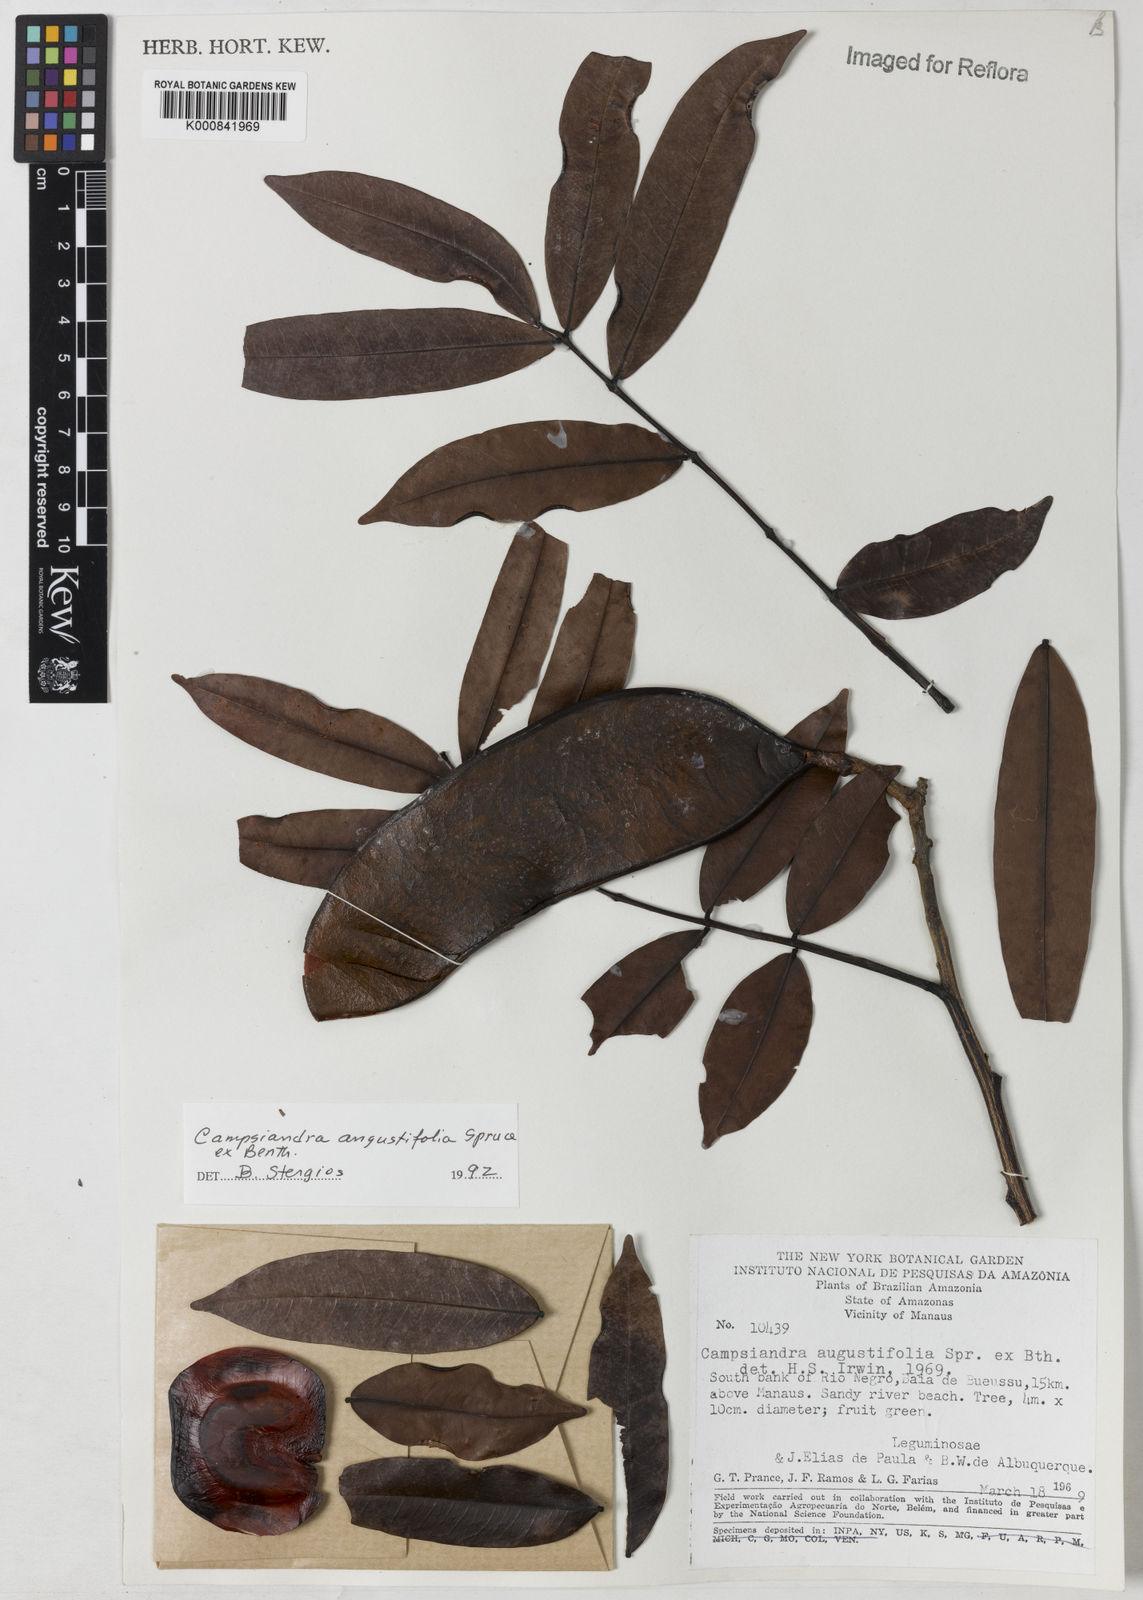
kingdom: Plantae
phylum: Tracheophyta
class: Magnoliopsida
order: Fabales
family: Fabaceae
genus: Campsiandra
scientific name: Campsiandra
